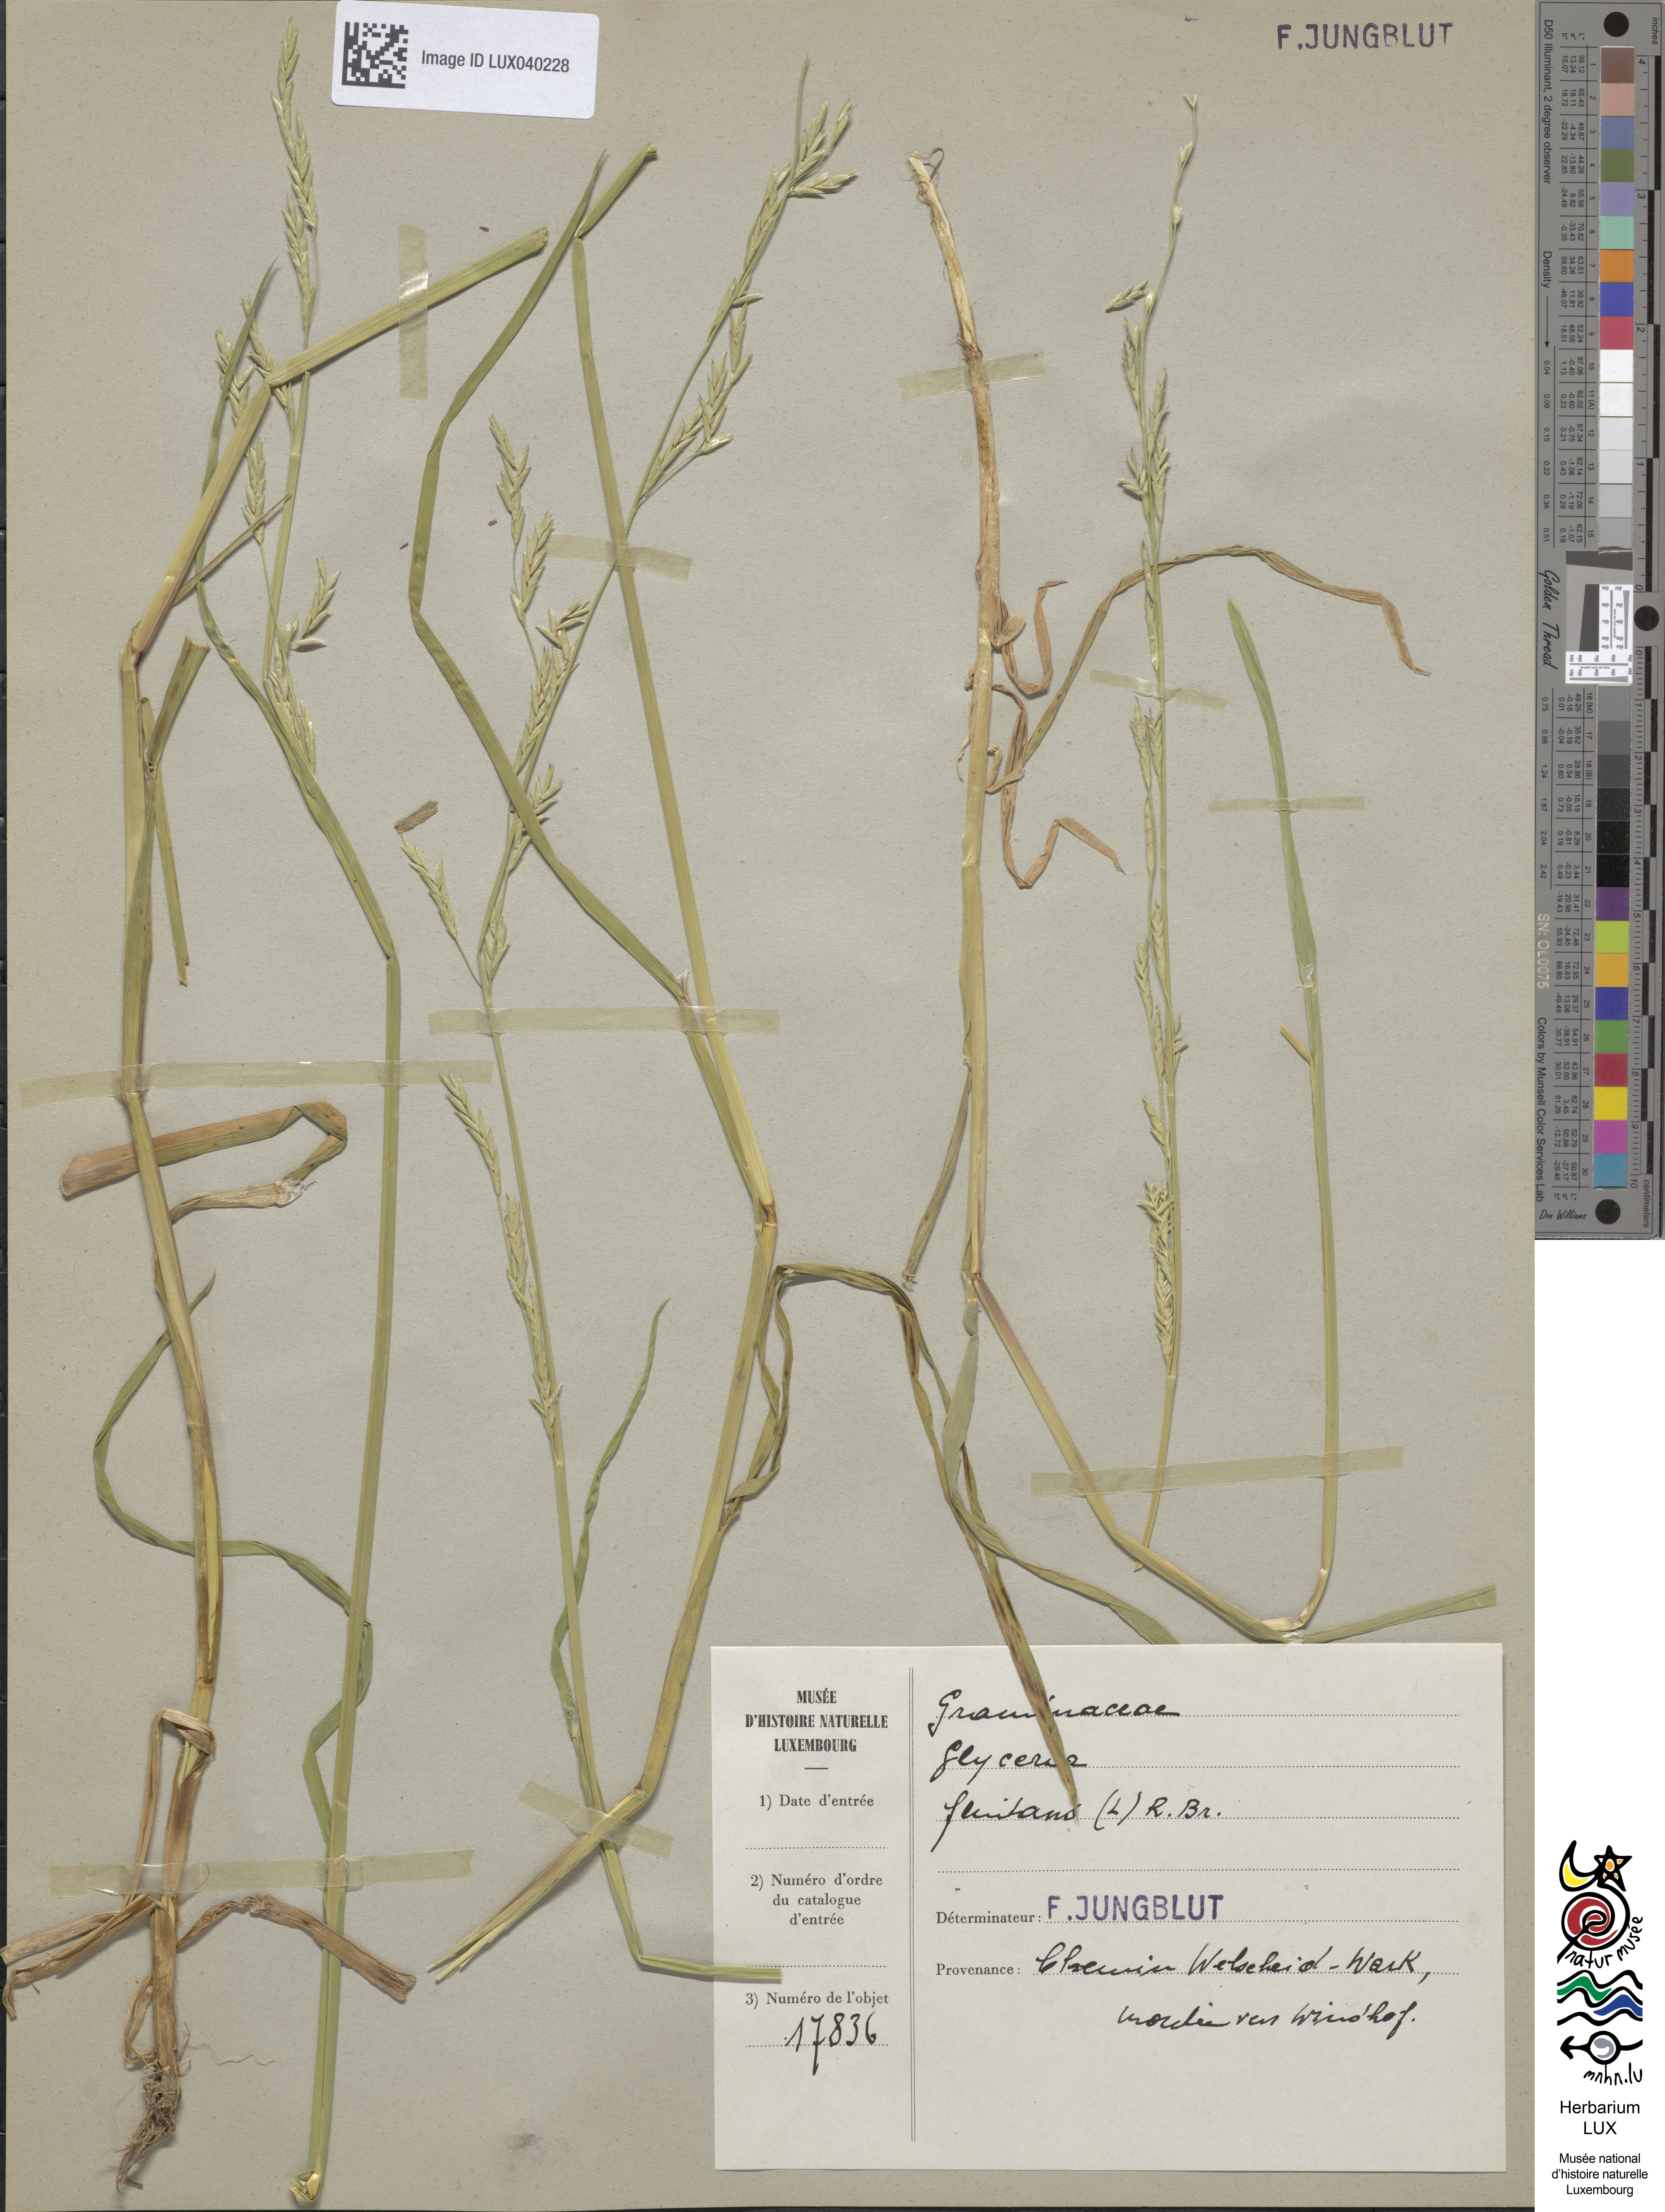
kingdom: Plantae
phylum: Tracheophyta
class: Liliopsida
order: Poales
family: Poaceae
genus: Glyceria
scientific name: Glyceria fluitans
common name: Floating sweet-grass
